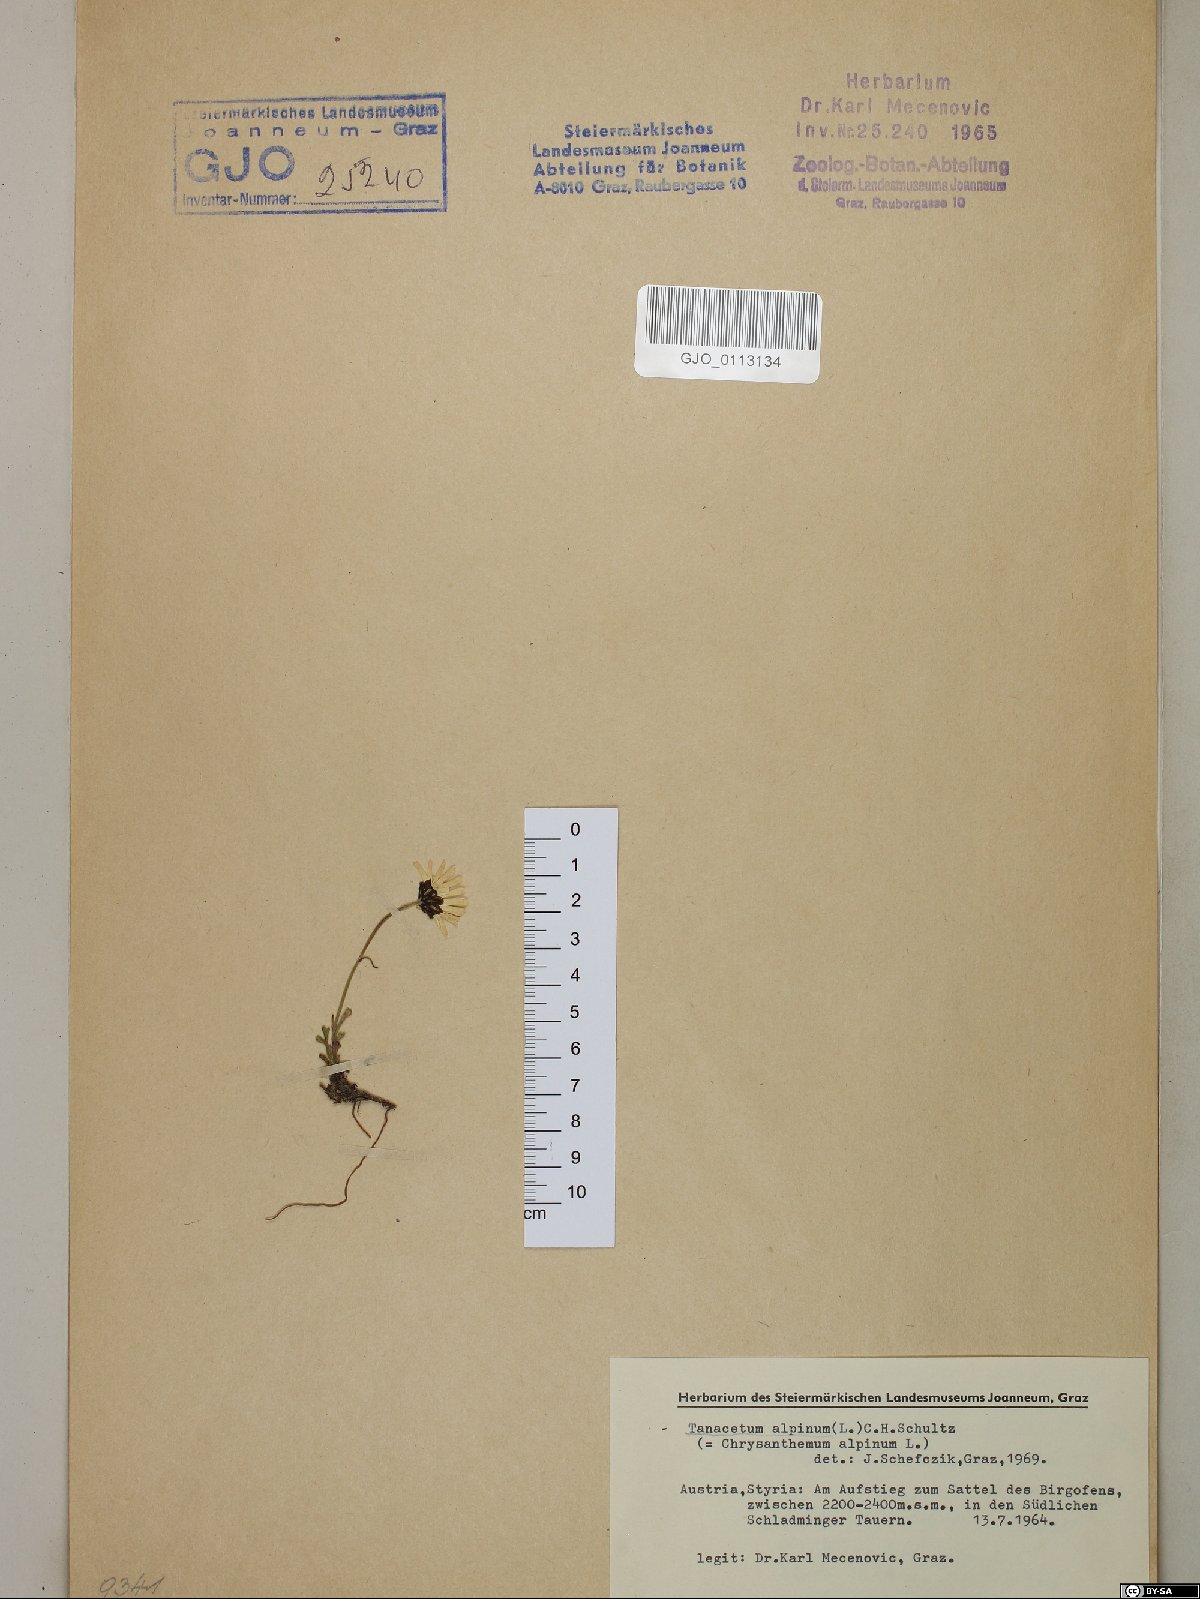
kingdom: Plantae
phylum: Tracheophyta
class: Magnoliopsida
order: Asterales
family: Asteraceae
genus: Leucanthemopsis
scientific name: Leucanthemopsis alpina
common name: Alpine moon daisy
